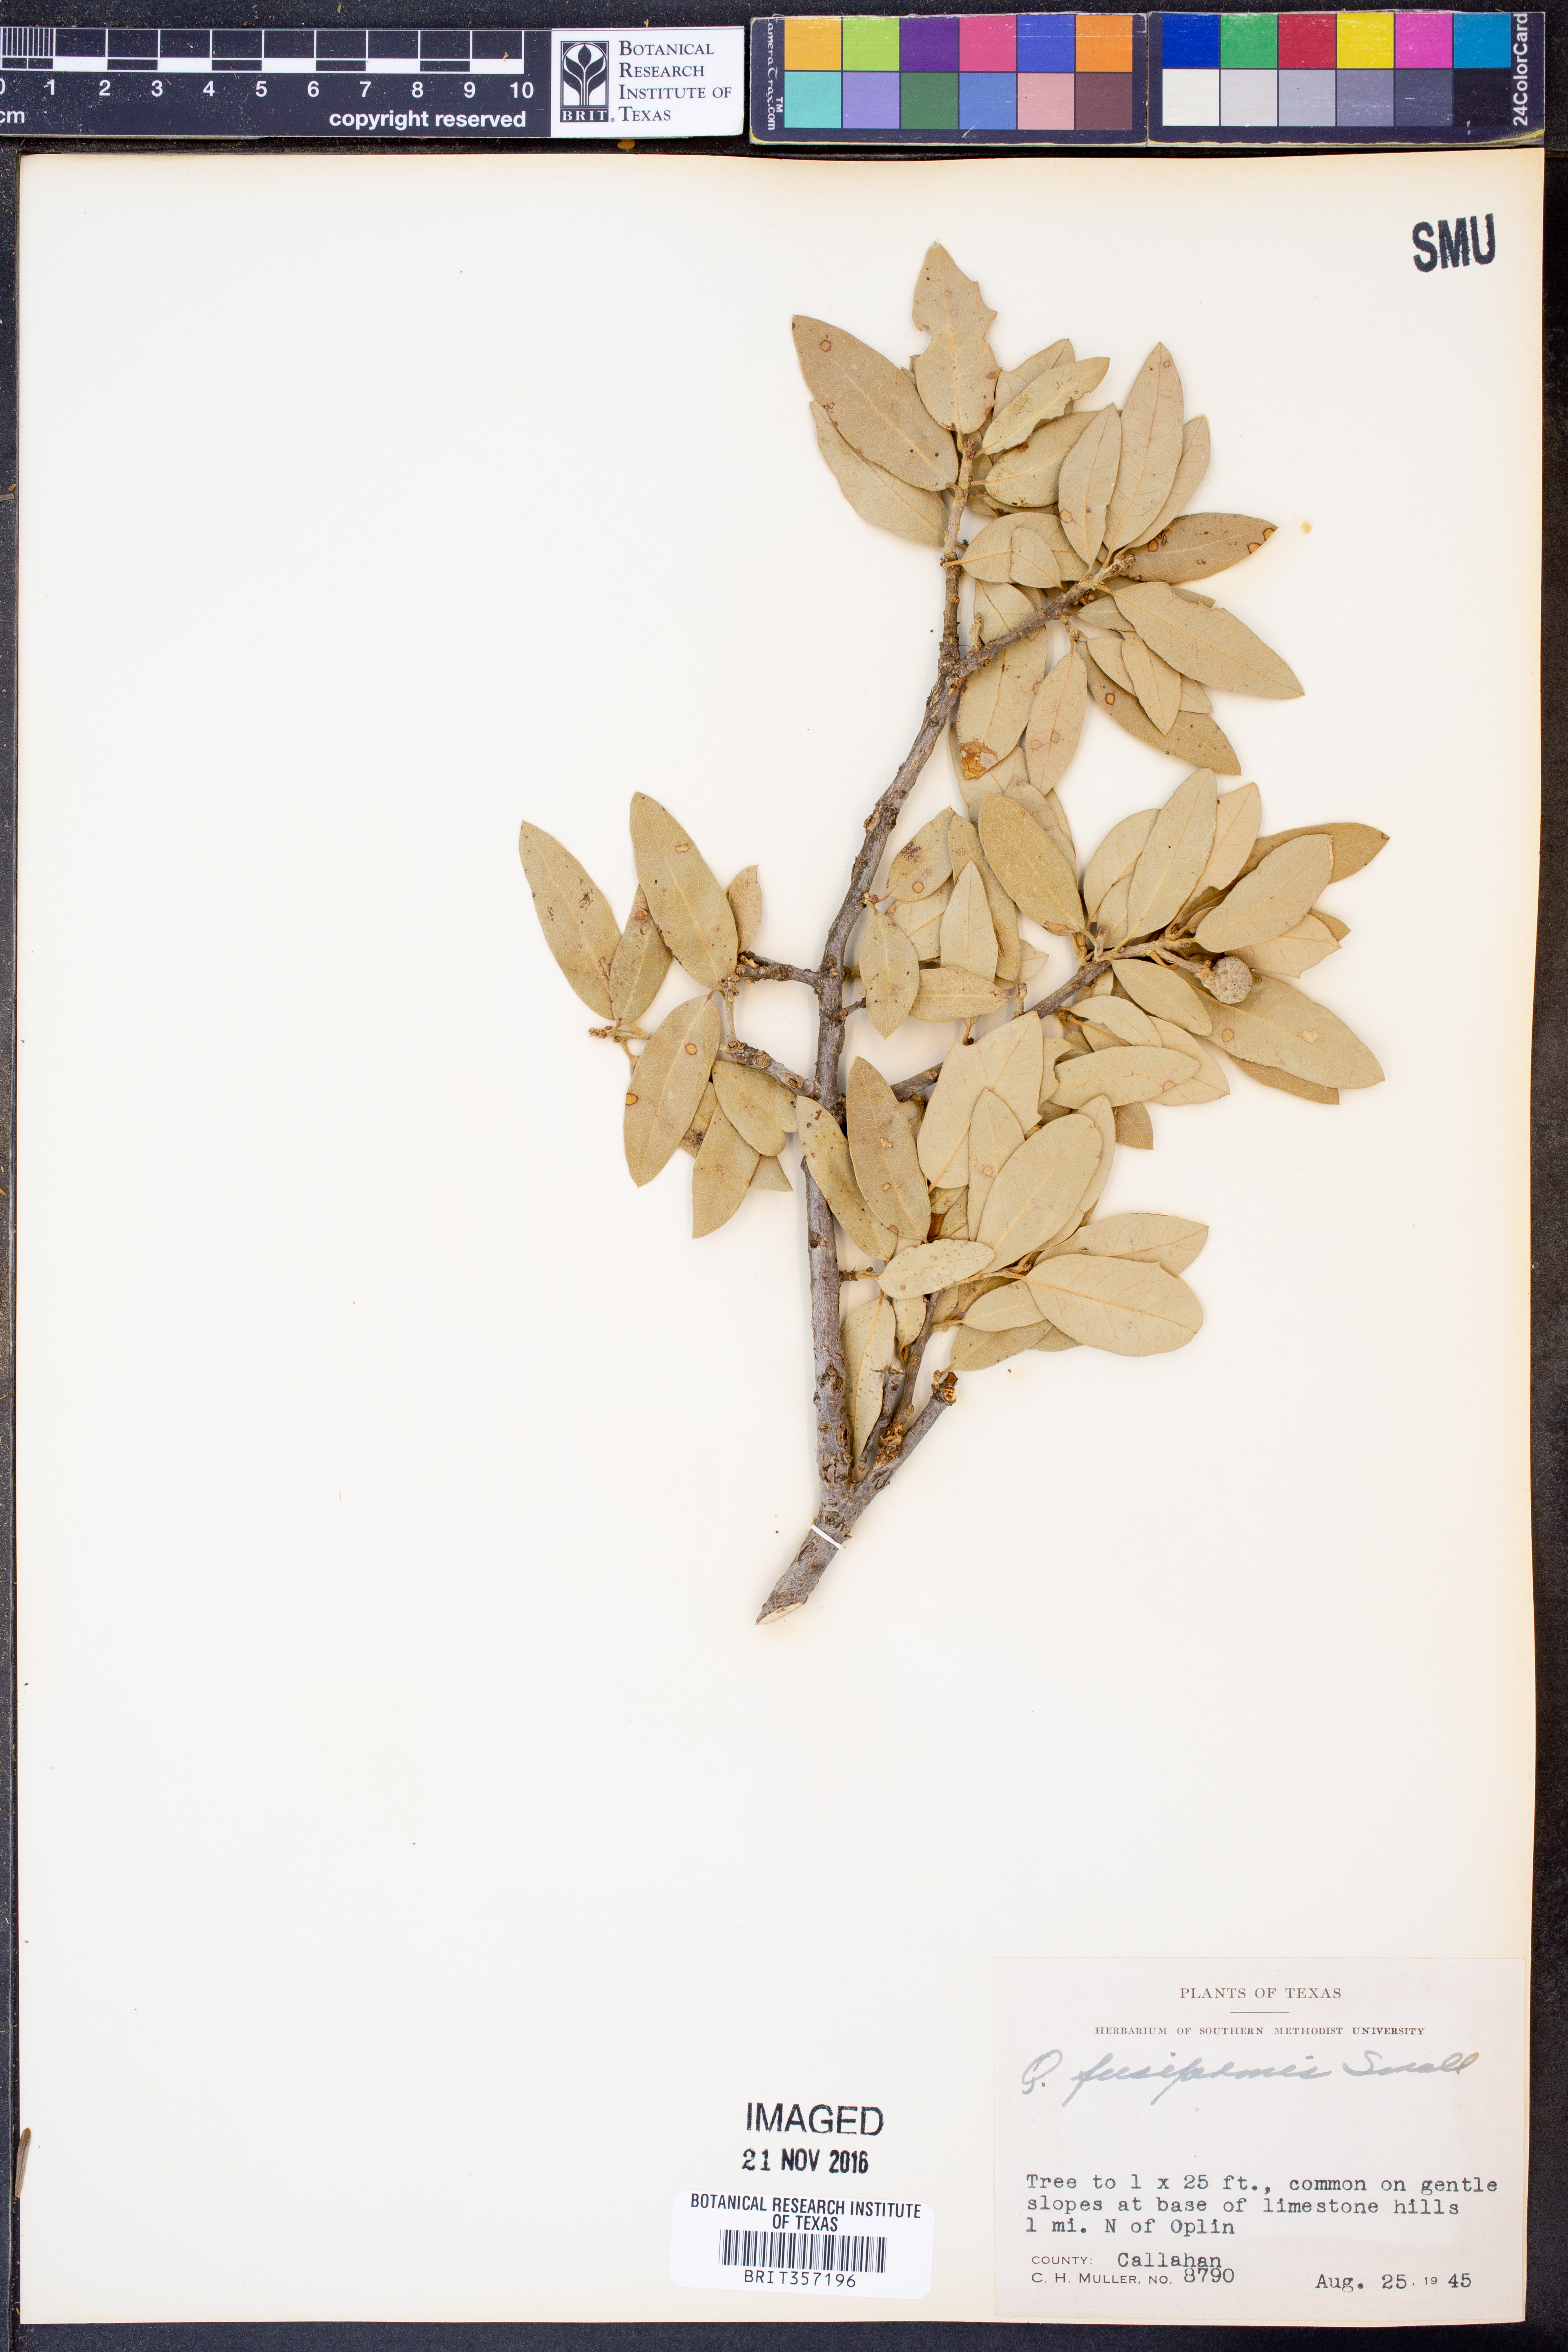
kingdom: Plantae
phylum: Tracheophyta
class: Magnoliopsida
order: Fagales
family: Fagaceae
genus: Quercus
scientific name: Quercus fusiformis
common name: Texas live oak
